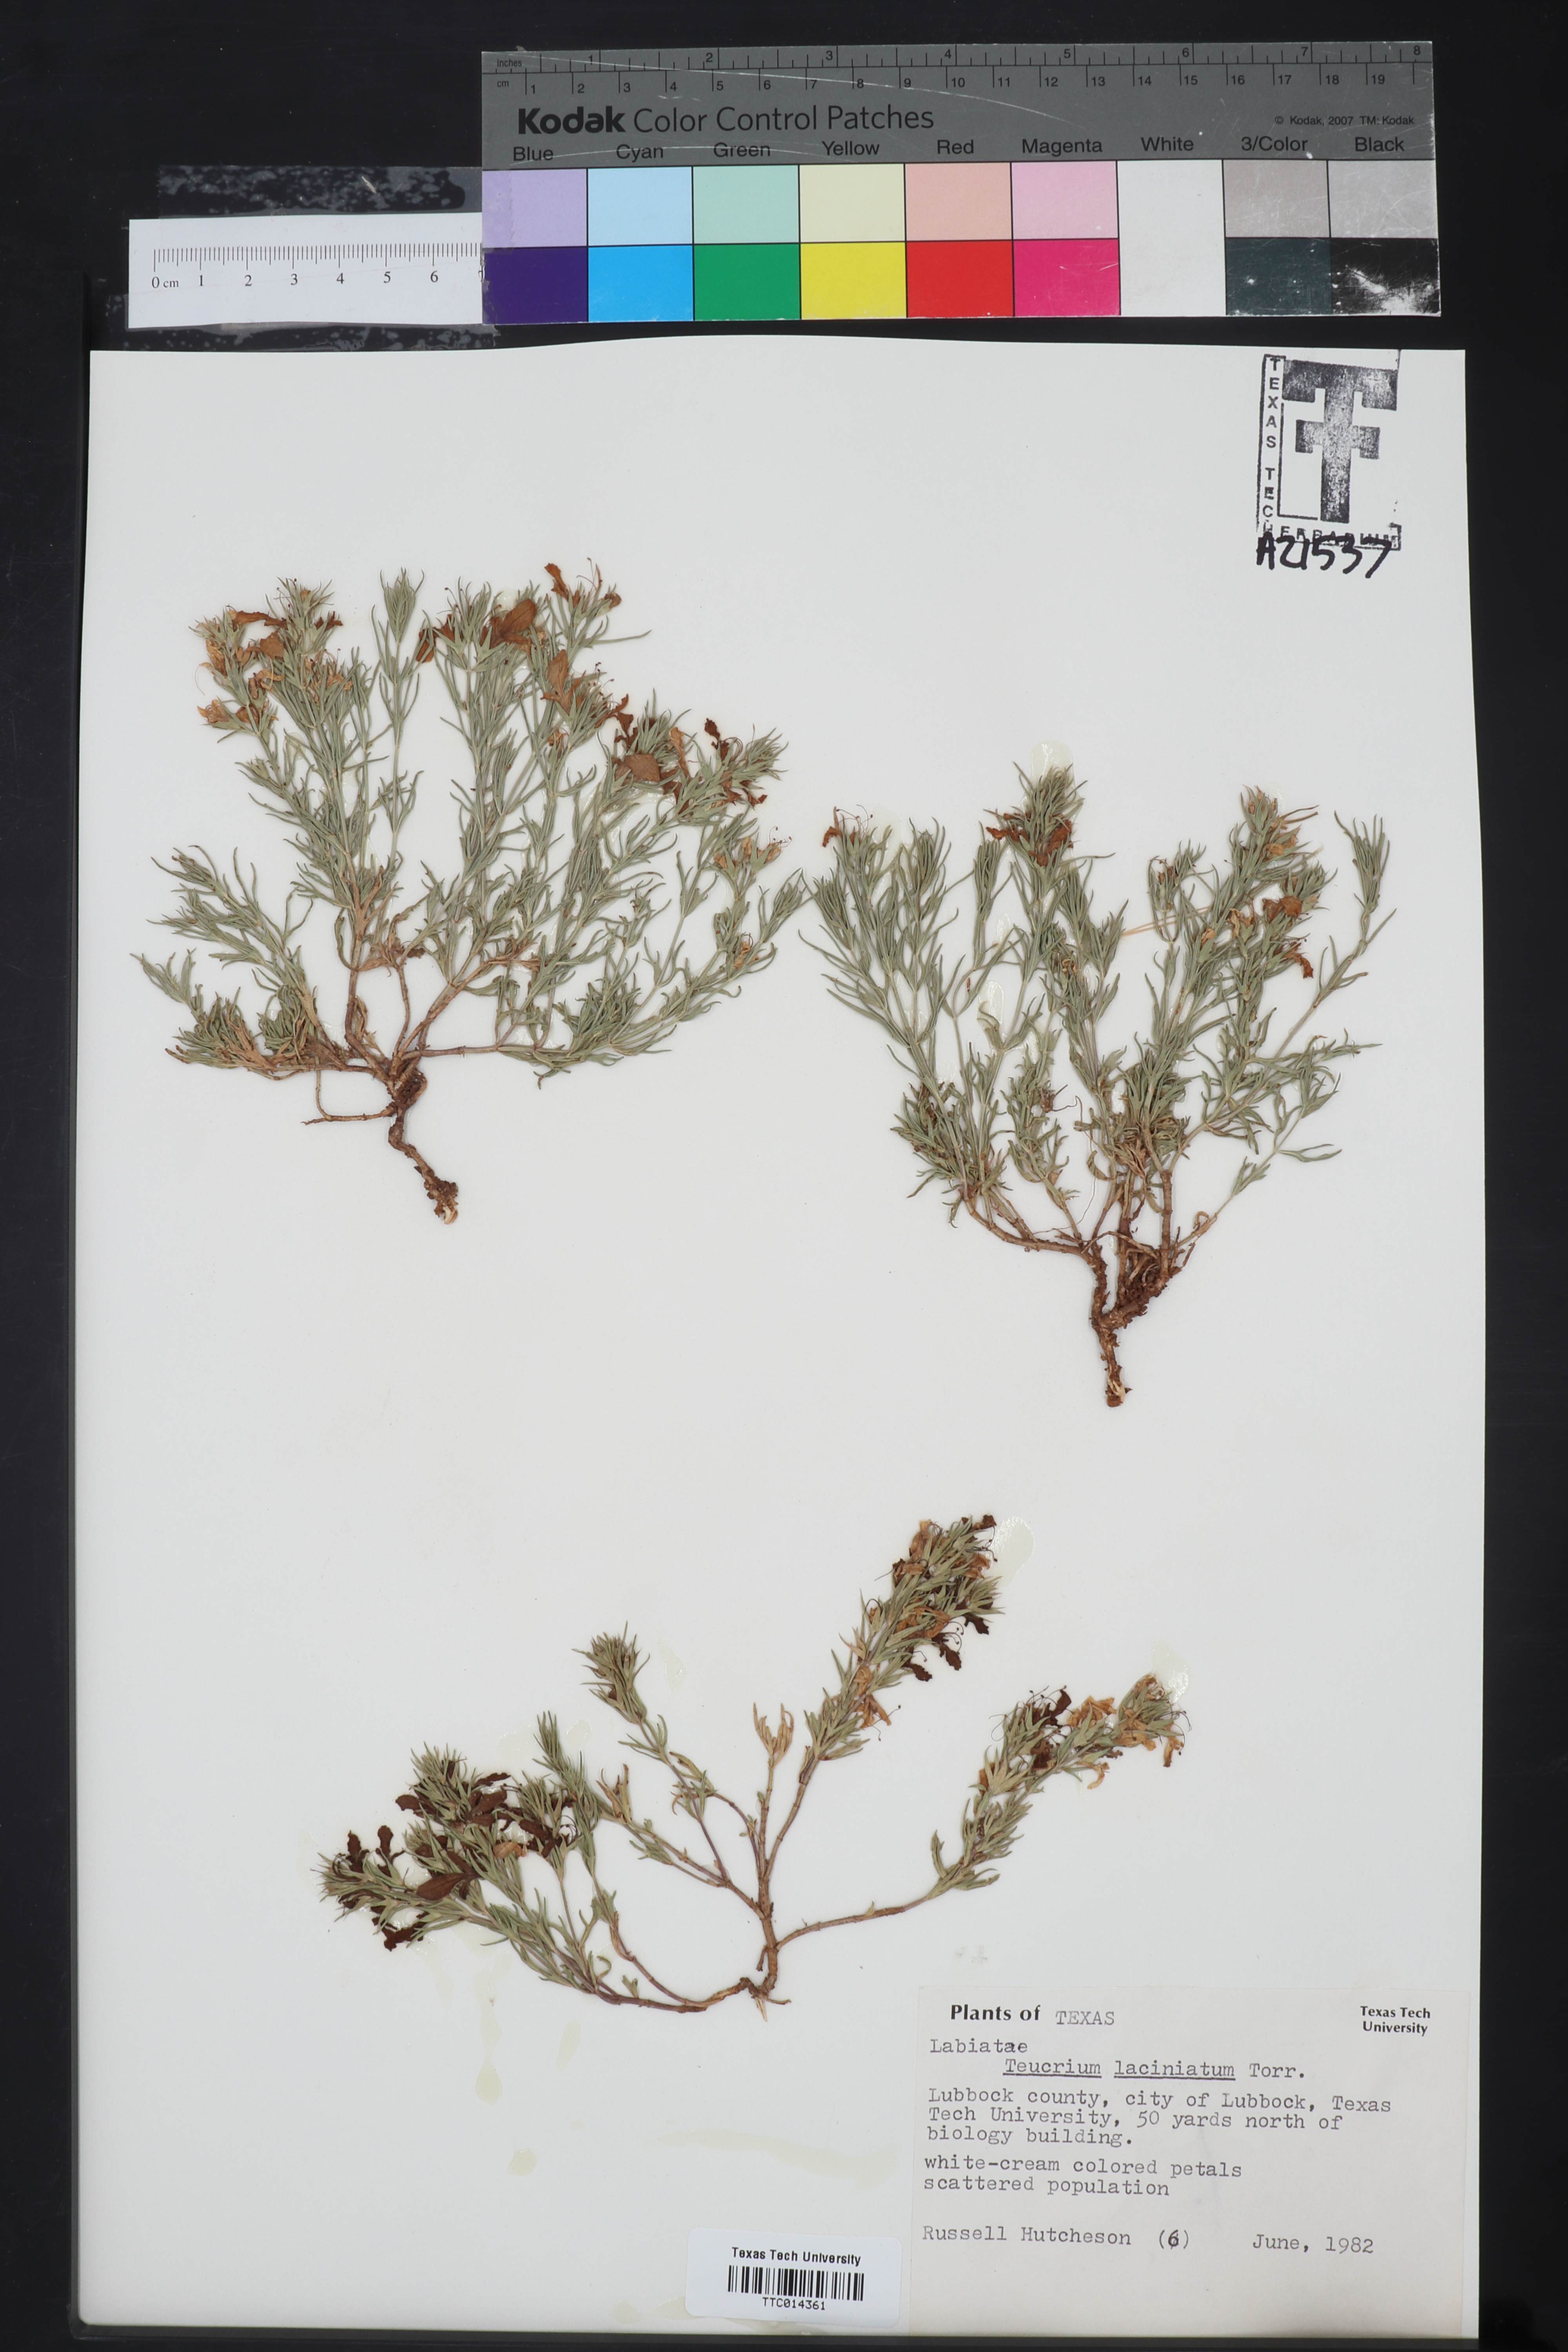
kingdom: Plantae
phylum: Tracheophyta
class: Magnoliopsida
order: Lamiales
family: Lamiaceae
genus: Teucrium
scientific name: Teucrium laciniatum
